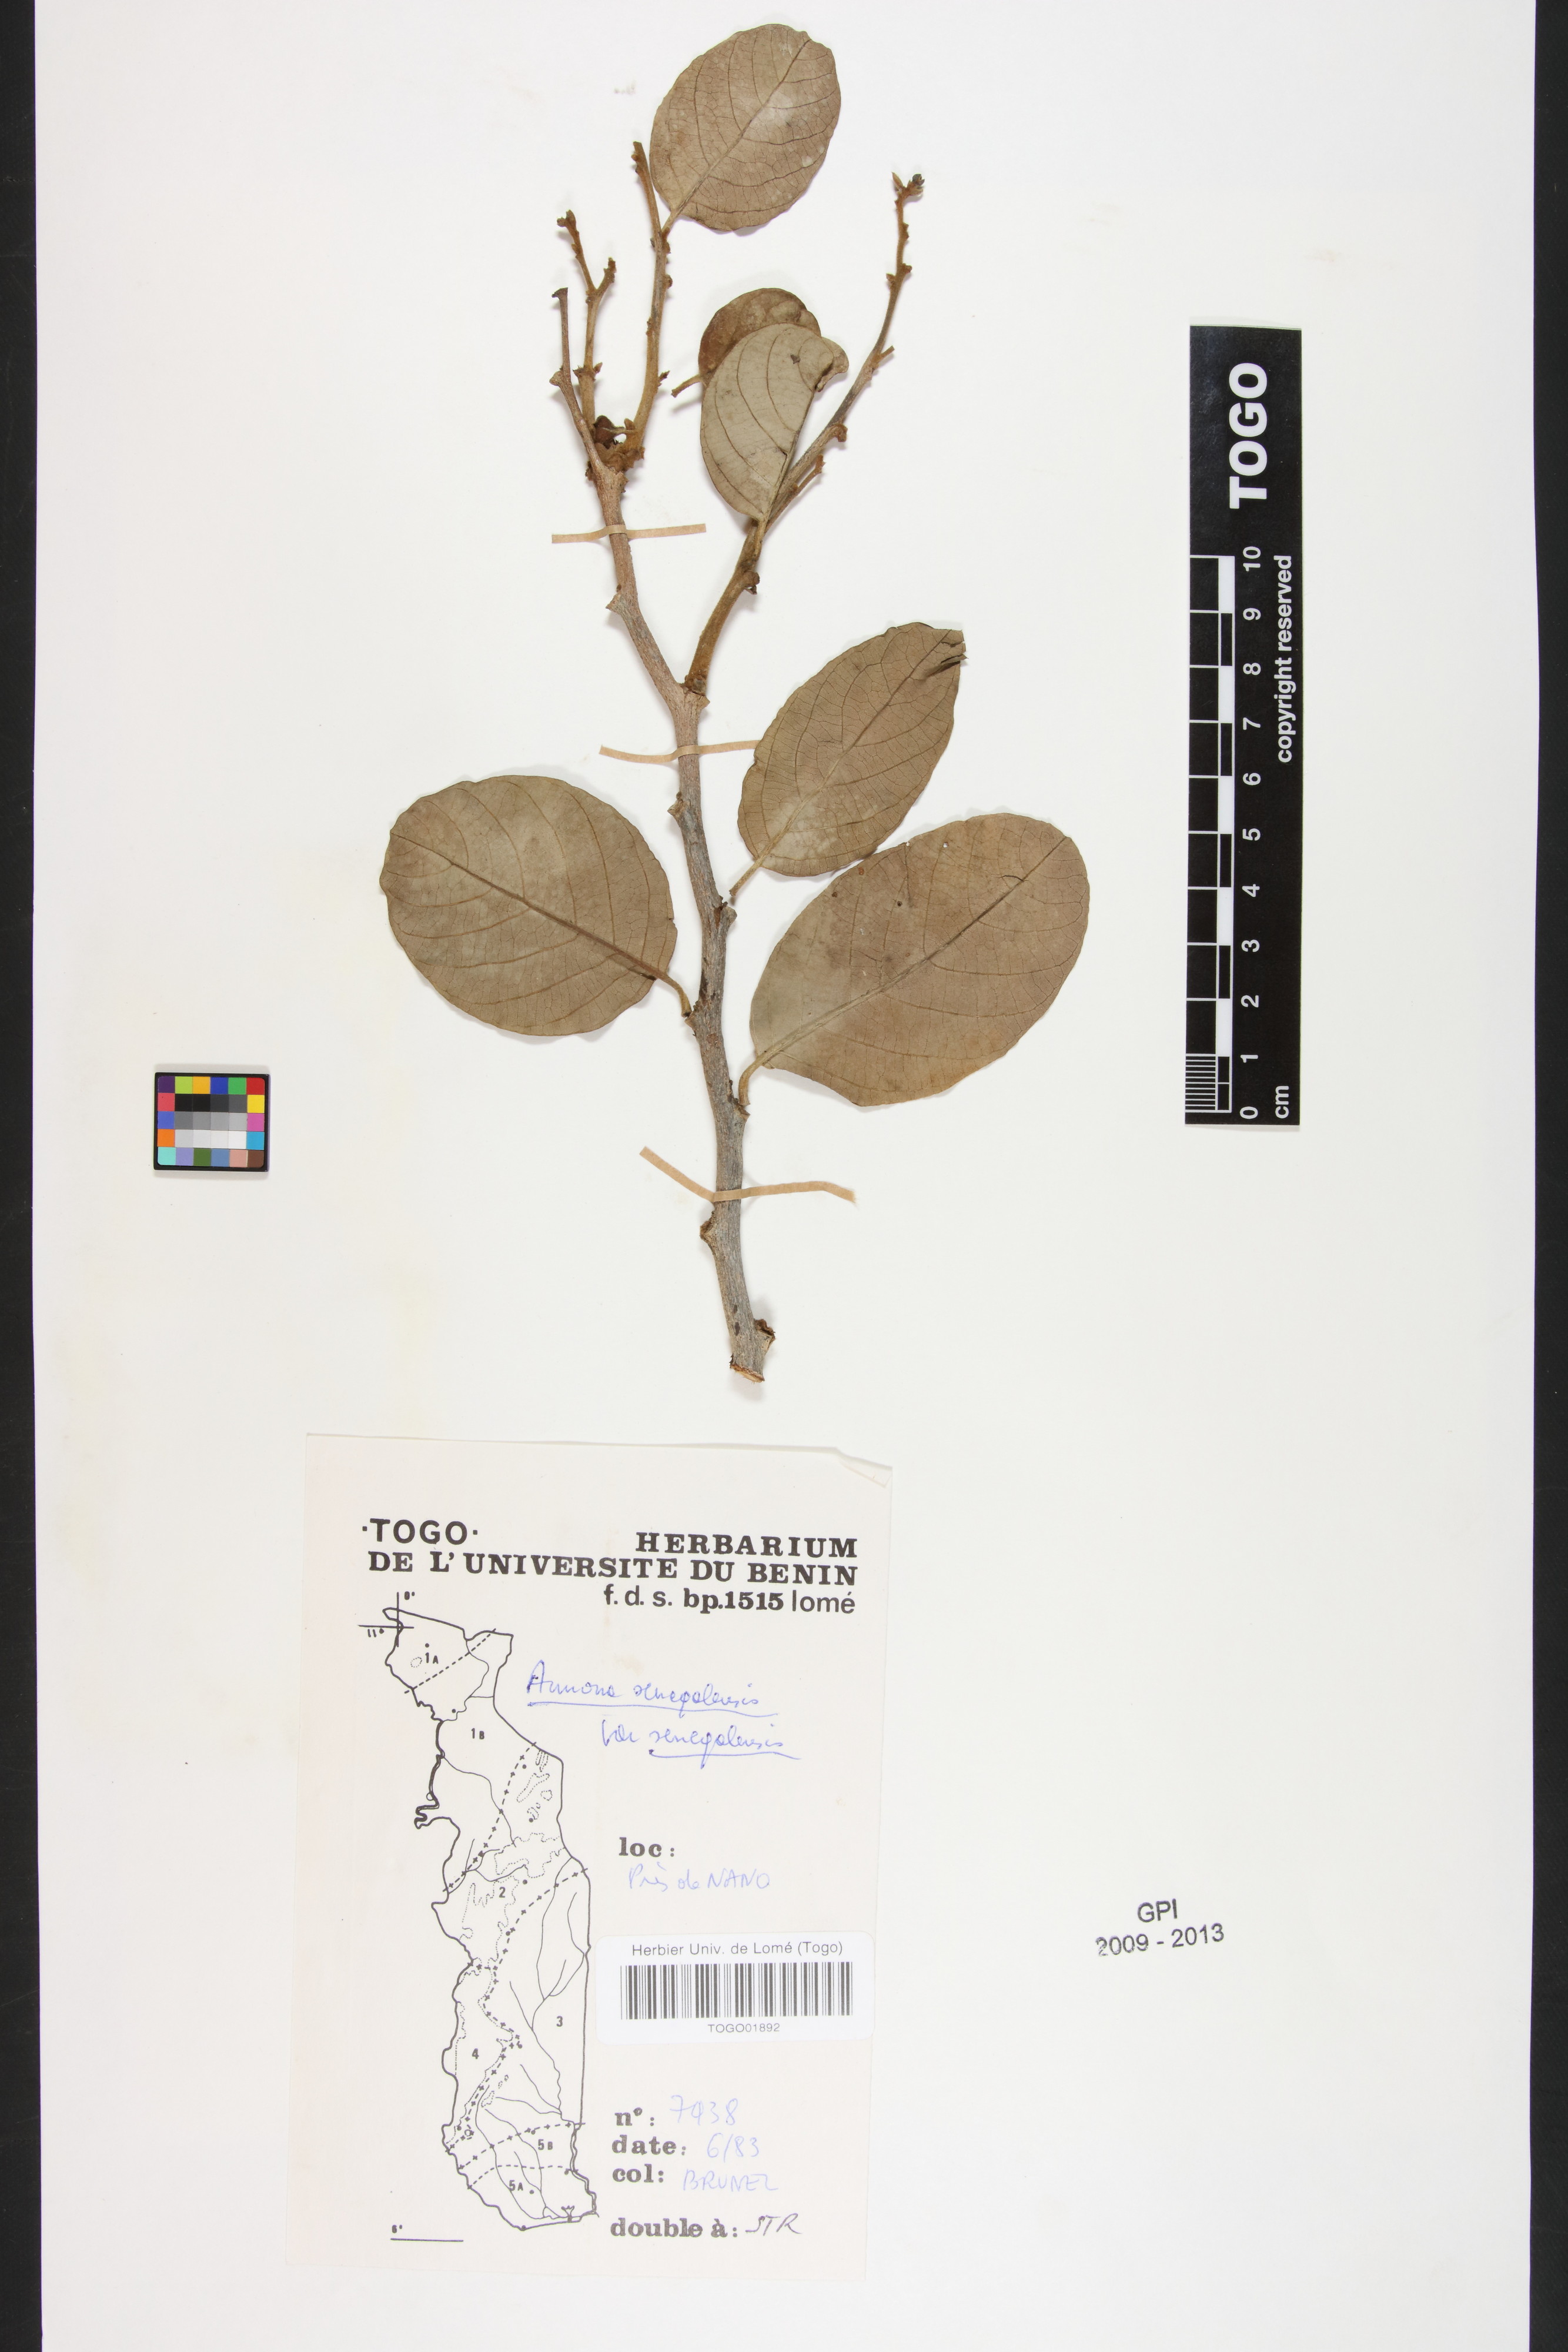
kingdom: Plantae
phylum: Tracheophyta
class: Magnoliopsida
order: Magnoliales
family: Annonaceae
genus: Annona
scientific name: Annona senegalensis
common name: Wild custard-apple
